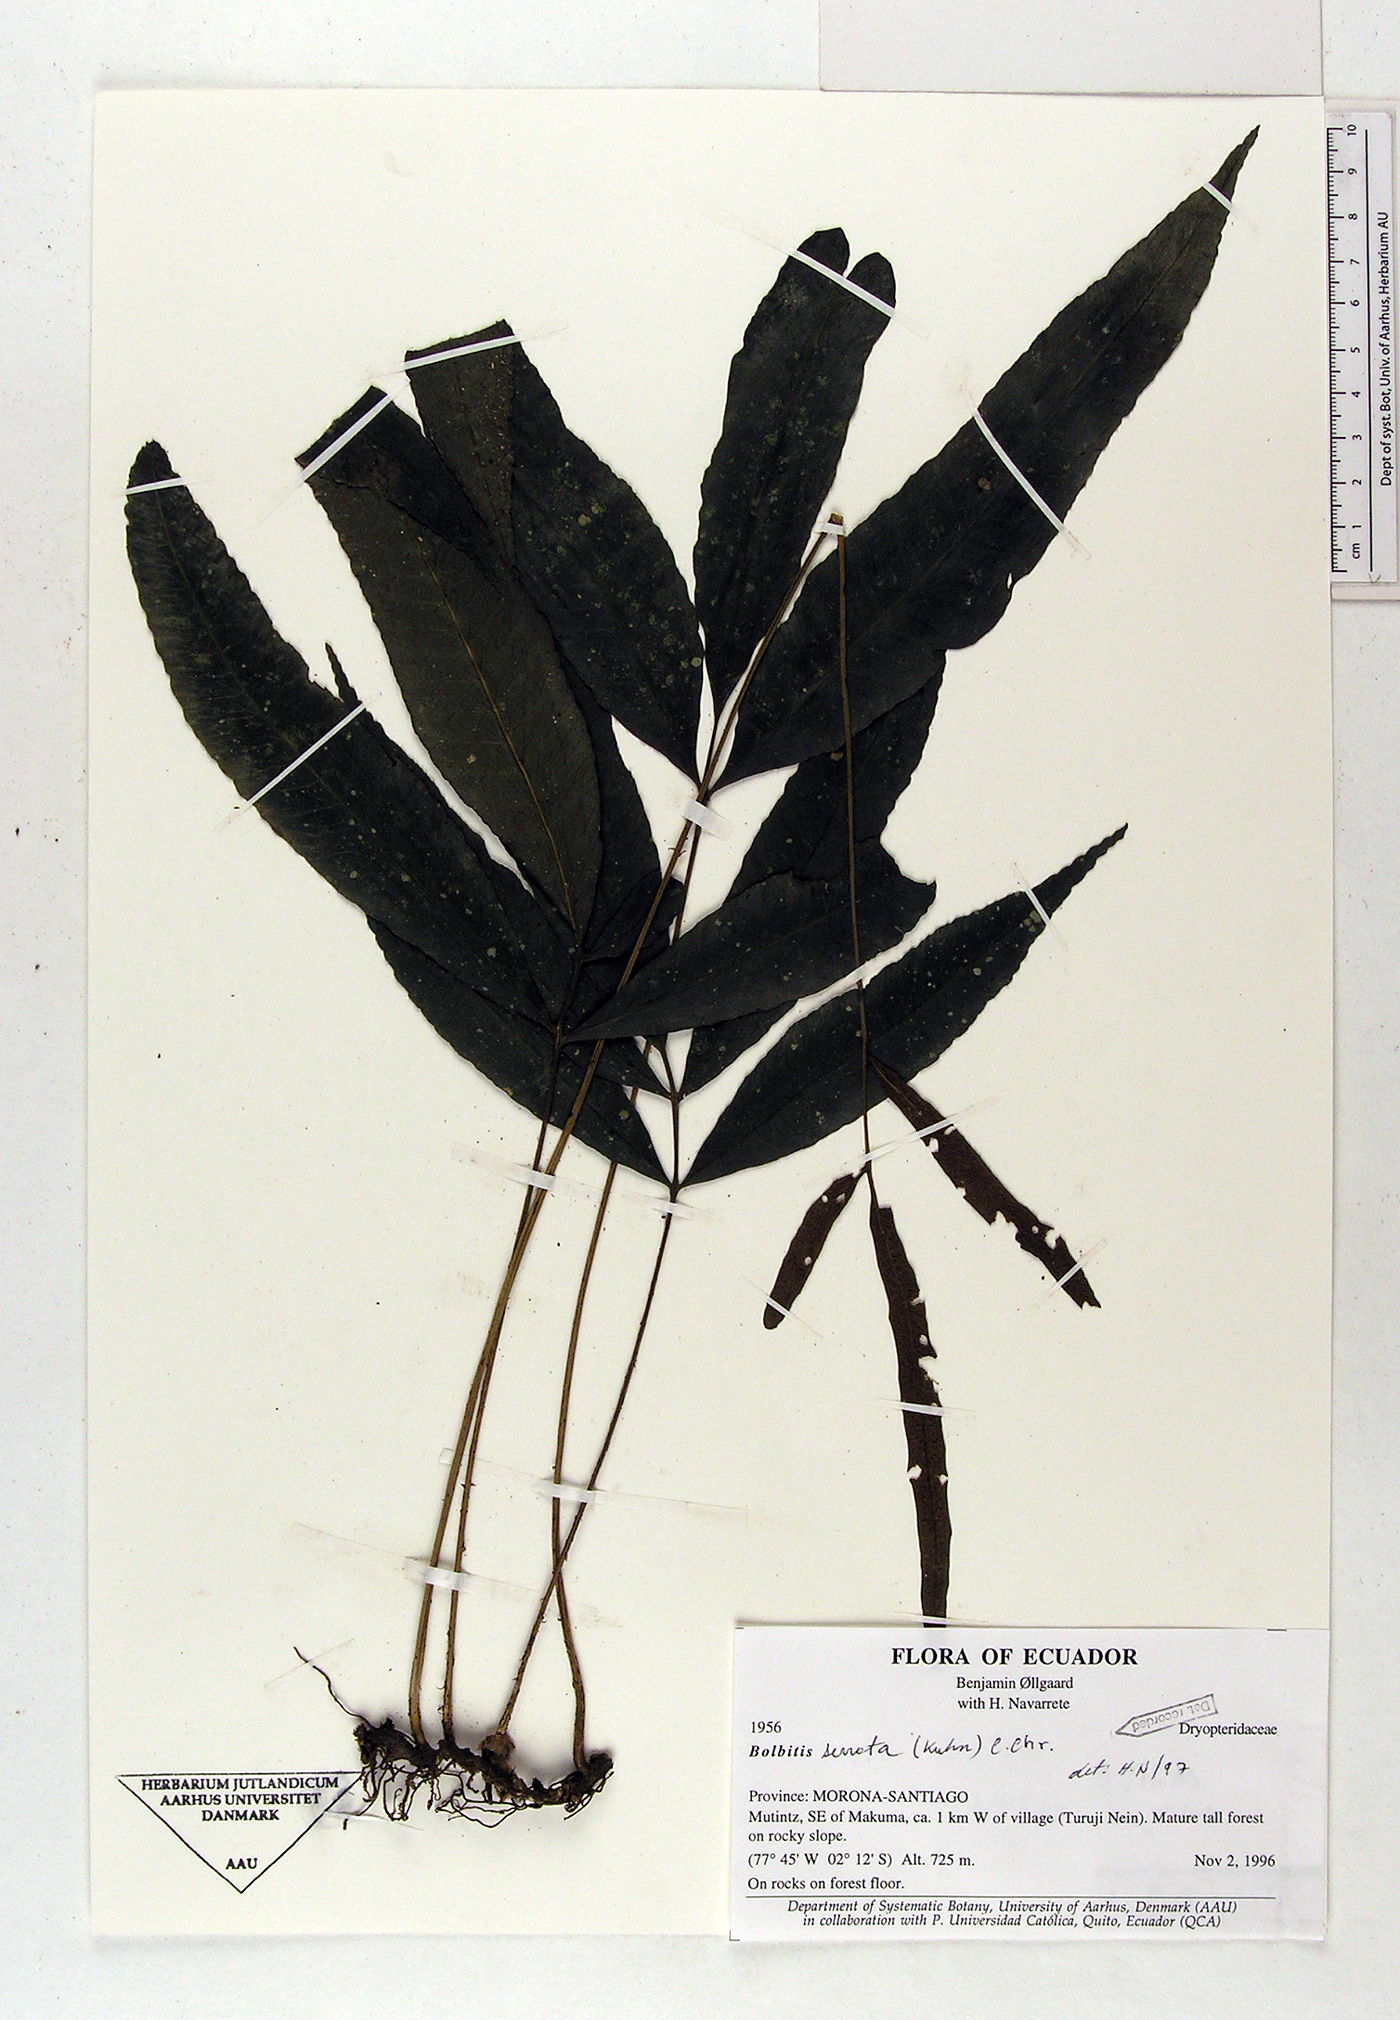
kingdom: Plantae
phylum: Tracheophyta
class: Polypodiopsida
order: Polypodiales
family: Dryopteridaceae
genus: Bolbitis
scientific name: Bolbitis serrata
